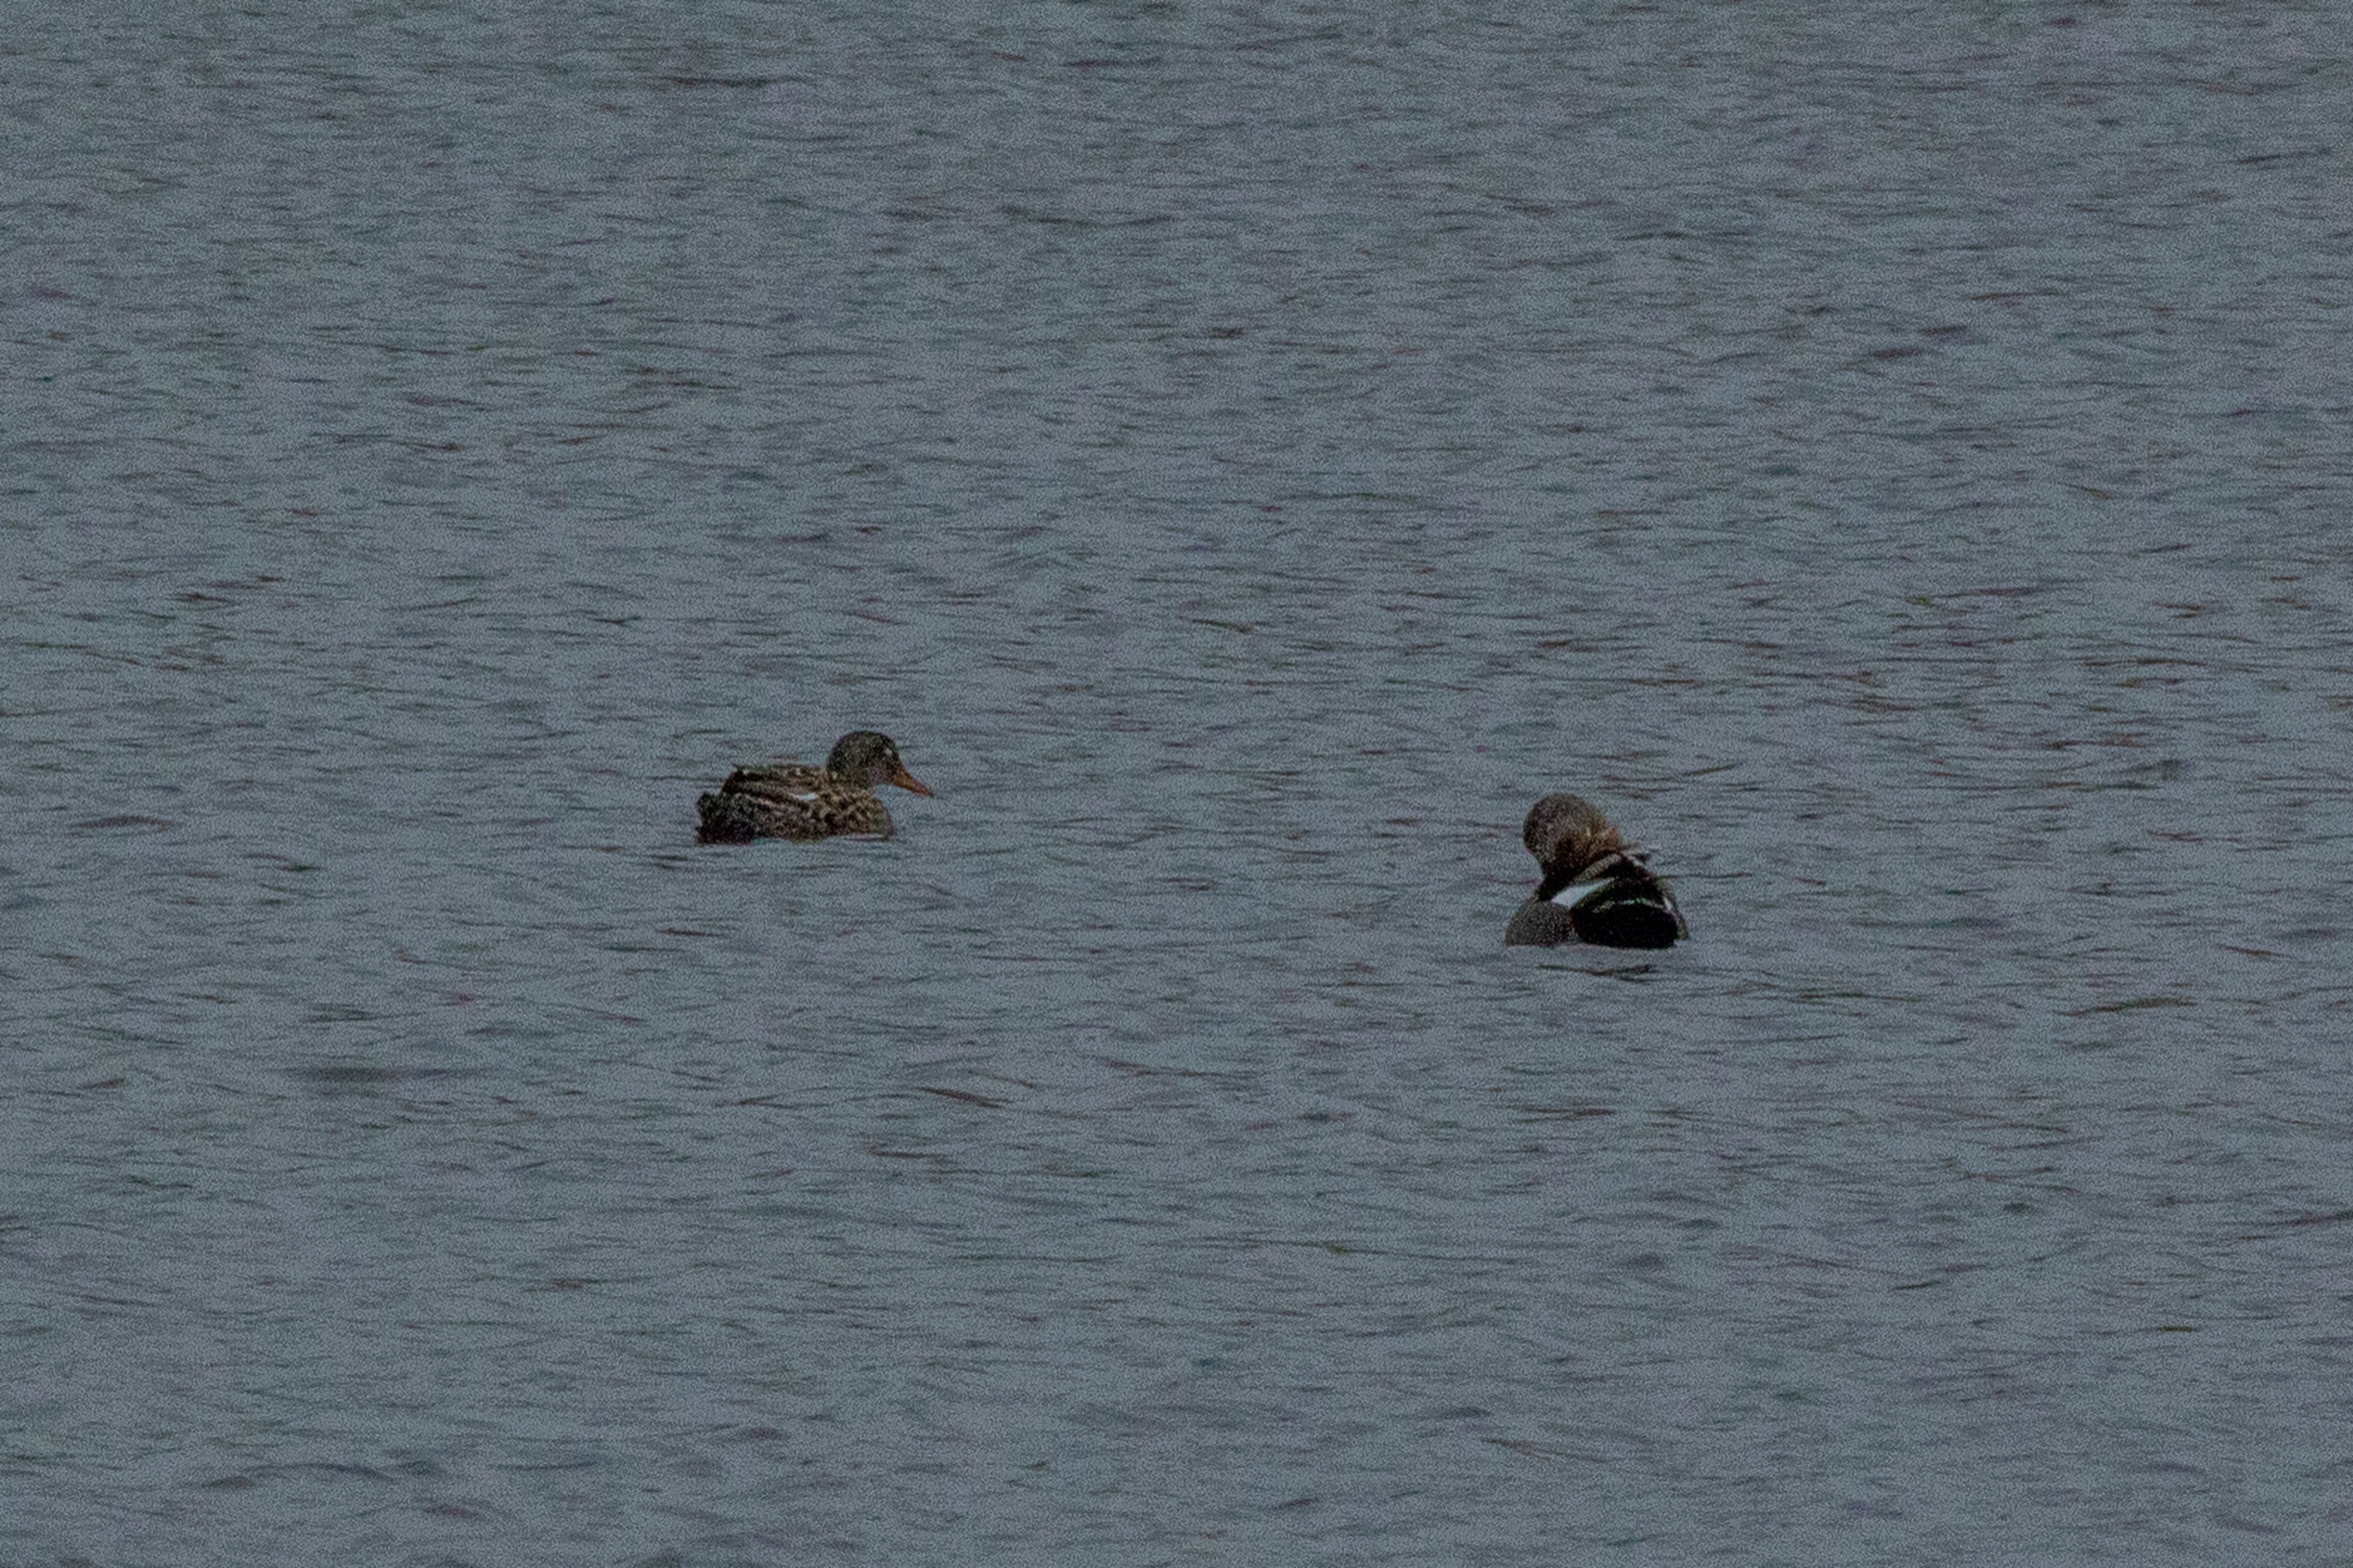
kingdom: Animalia
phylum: Chordata
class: Aves
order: Anseriformes
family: Anatidae
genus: Mareca
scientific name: Mareca strepera
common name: Knarand
